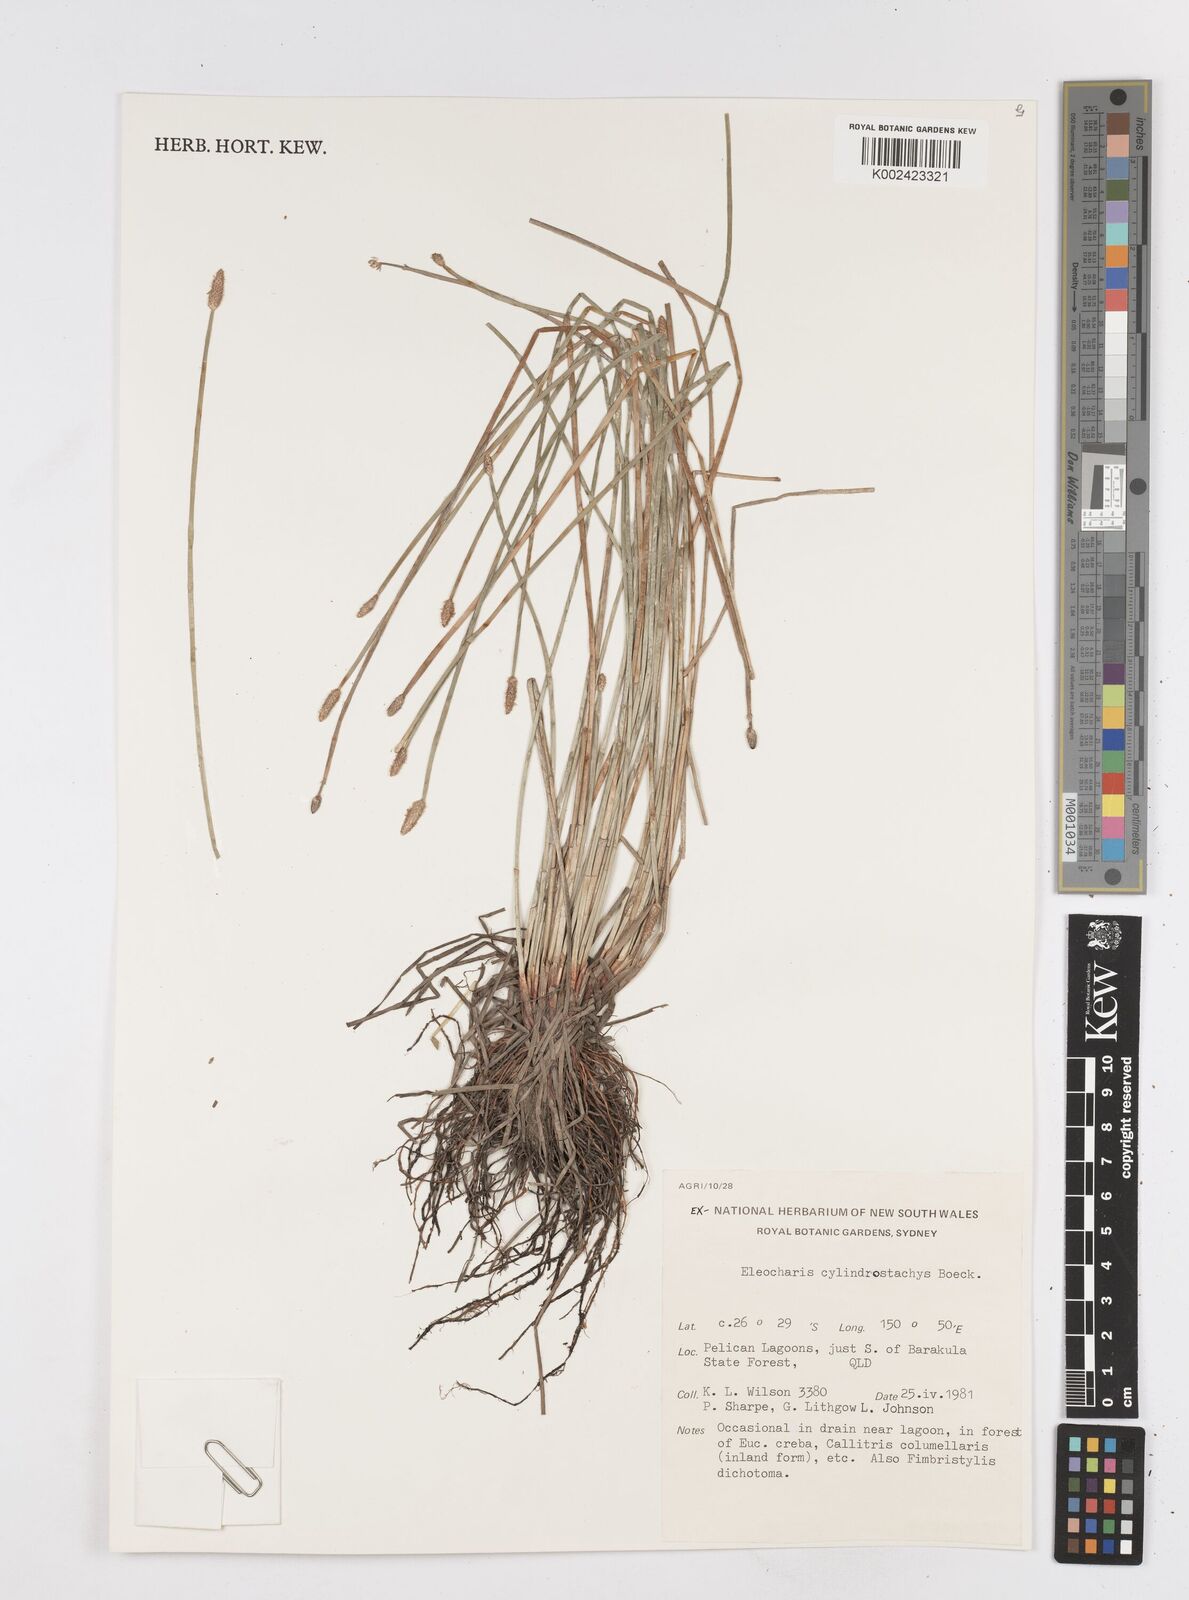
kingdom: Plantae
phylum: Tracheophyta
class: Liliopsida
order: Poales
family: Cyperaceae
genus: Eleocharis
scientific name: Eleocharis cylindrostachys
